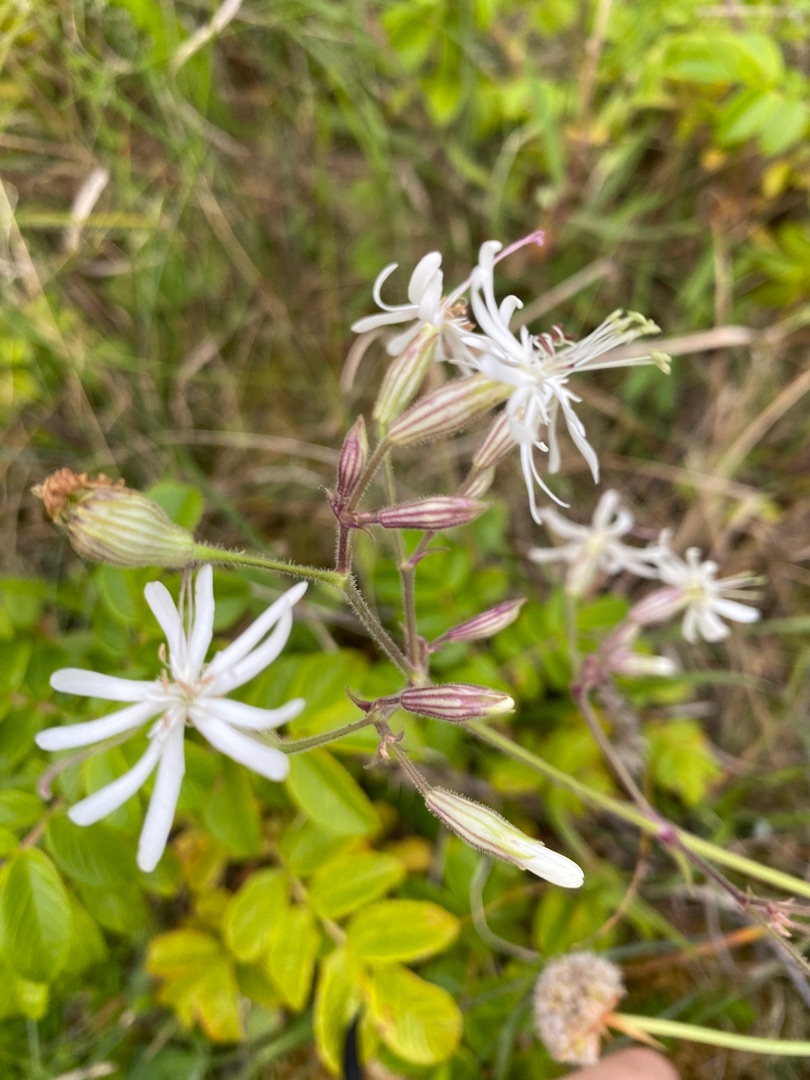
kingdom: Plantae
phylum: Tracheophyta
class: Magnoliopsida
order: Caryophyllales
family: Caryophyllaceae
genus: Silene
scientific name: Silene nutans
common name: Nikkende limurt
